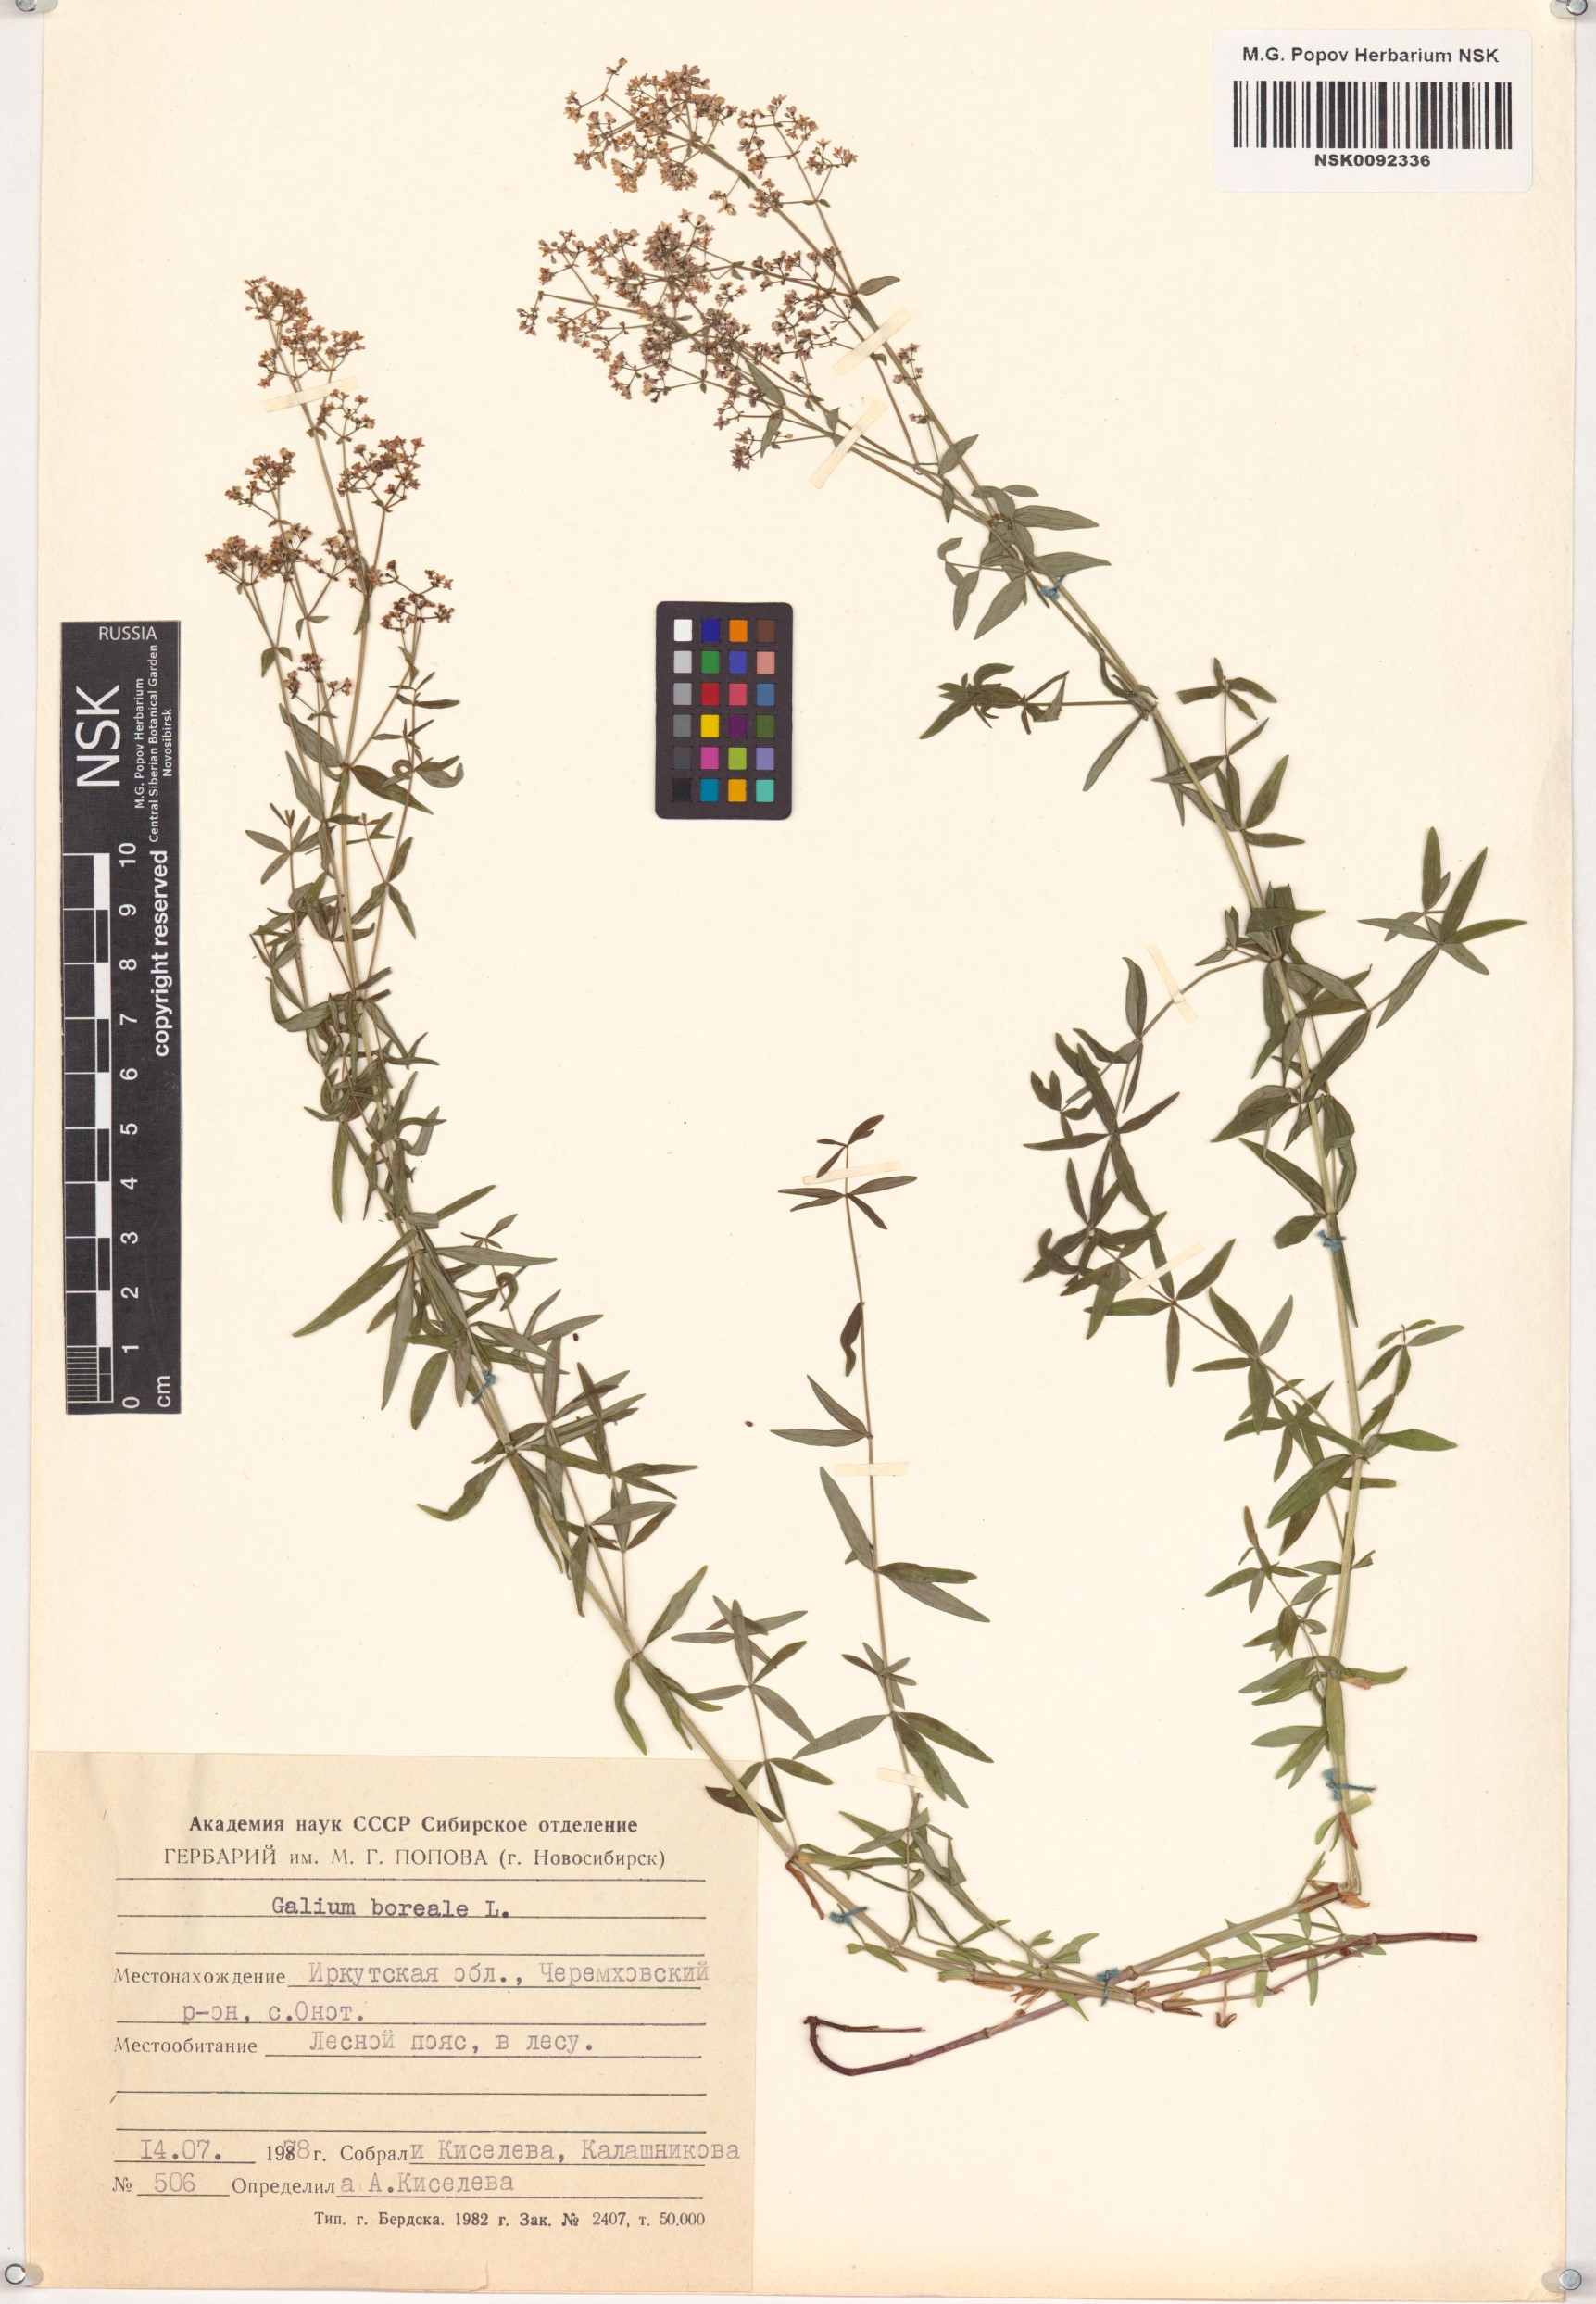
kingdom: Plantae
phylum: Tracheophyta
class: Magnoliopsida
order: Gentianales
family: Rubiaceae
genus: Galium
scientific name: Galium boreale
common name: Northern bedstraw
